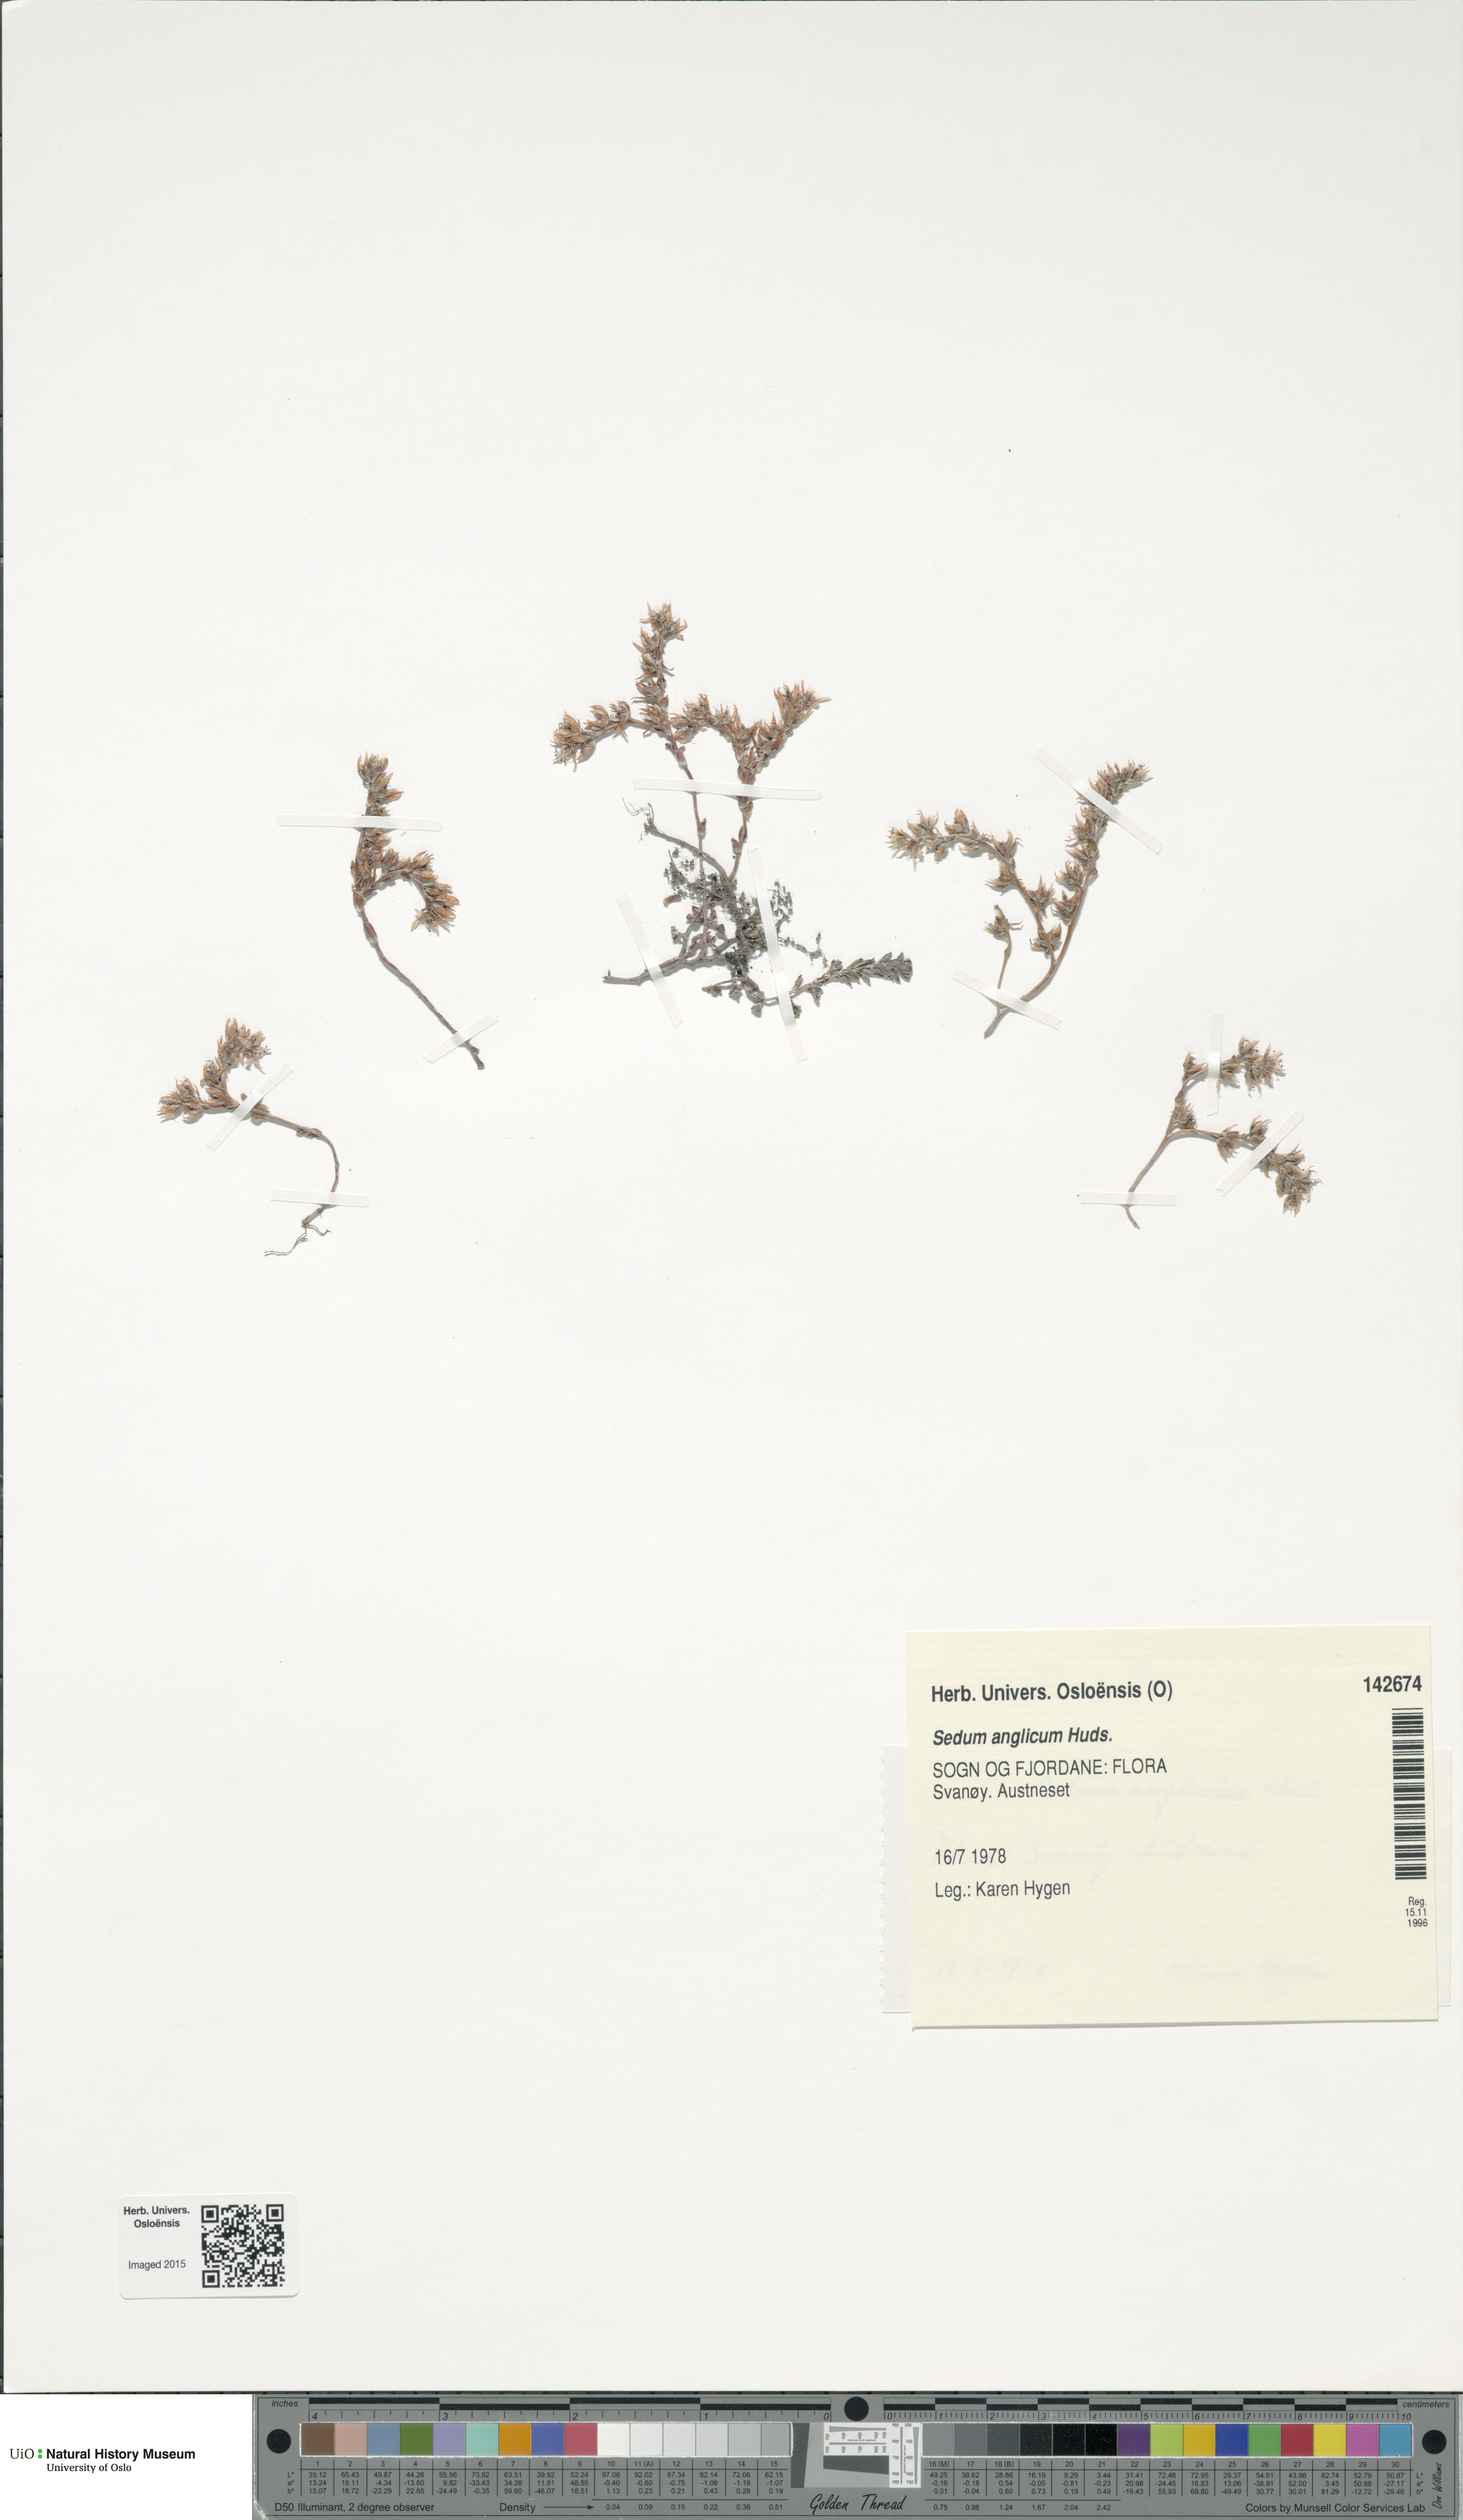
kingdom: Plantae
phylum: Tracheophyta
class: Magnoliopsida
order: Saxifragales
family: Crassulaceae
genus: Sedum
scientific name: Sedum anglicum
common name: English stonecrop
